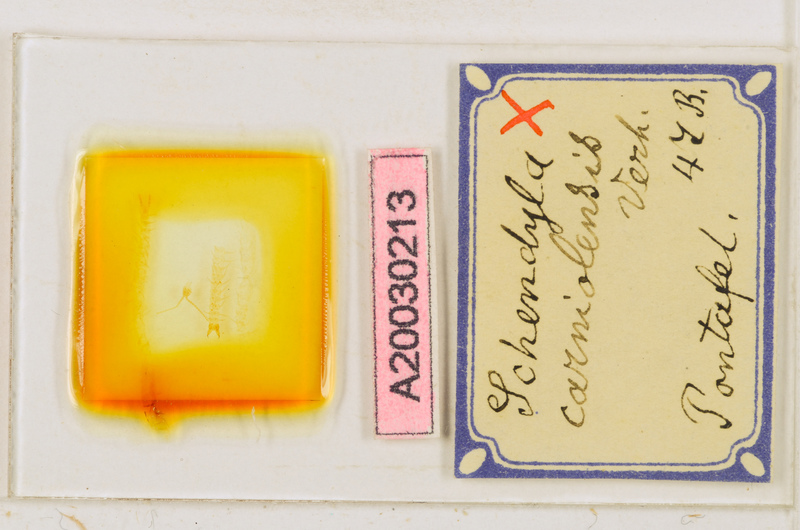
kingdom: Animalia
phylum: Arthropoda
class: Chilopoda
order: Geophilomorpha
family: Schendylidae
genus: Schendyla
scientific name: Schendyla carniolensis
